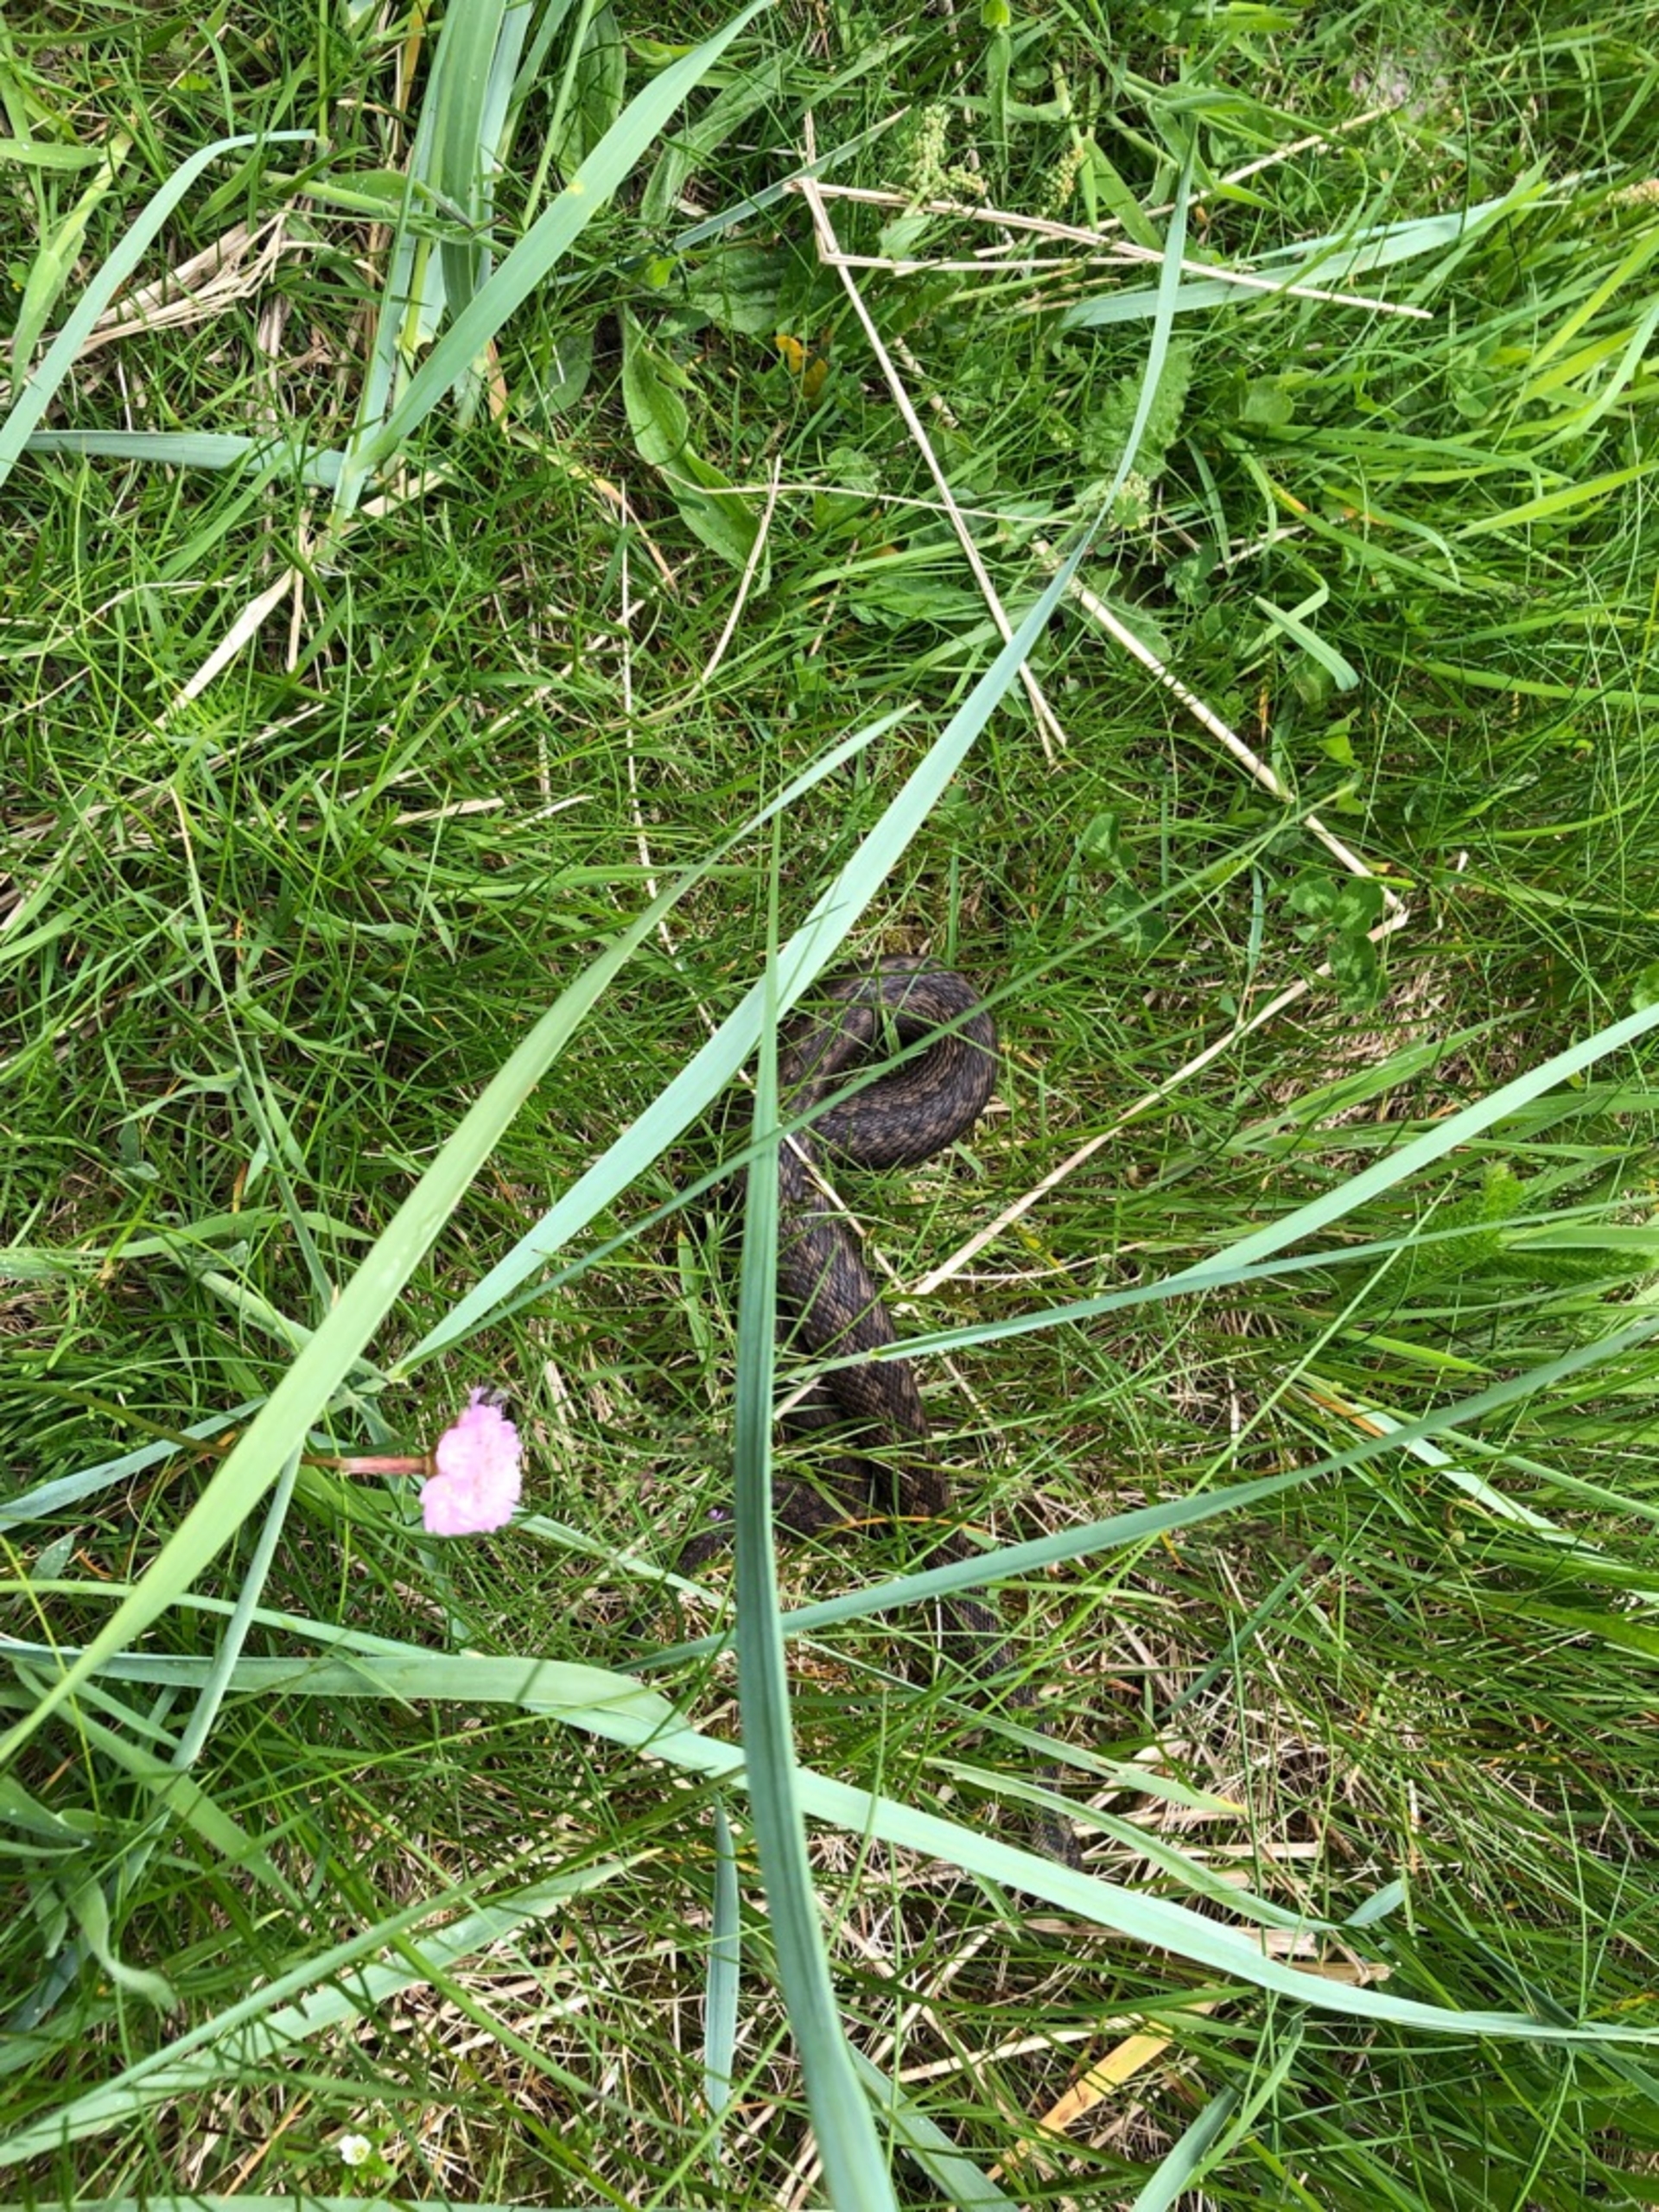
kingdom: Animalia
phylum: Chordata
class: Squamata
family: Viperidae
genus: Vipera
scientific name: Vipera berus
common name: Hugorm
